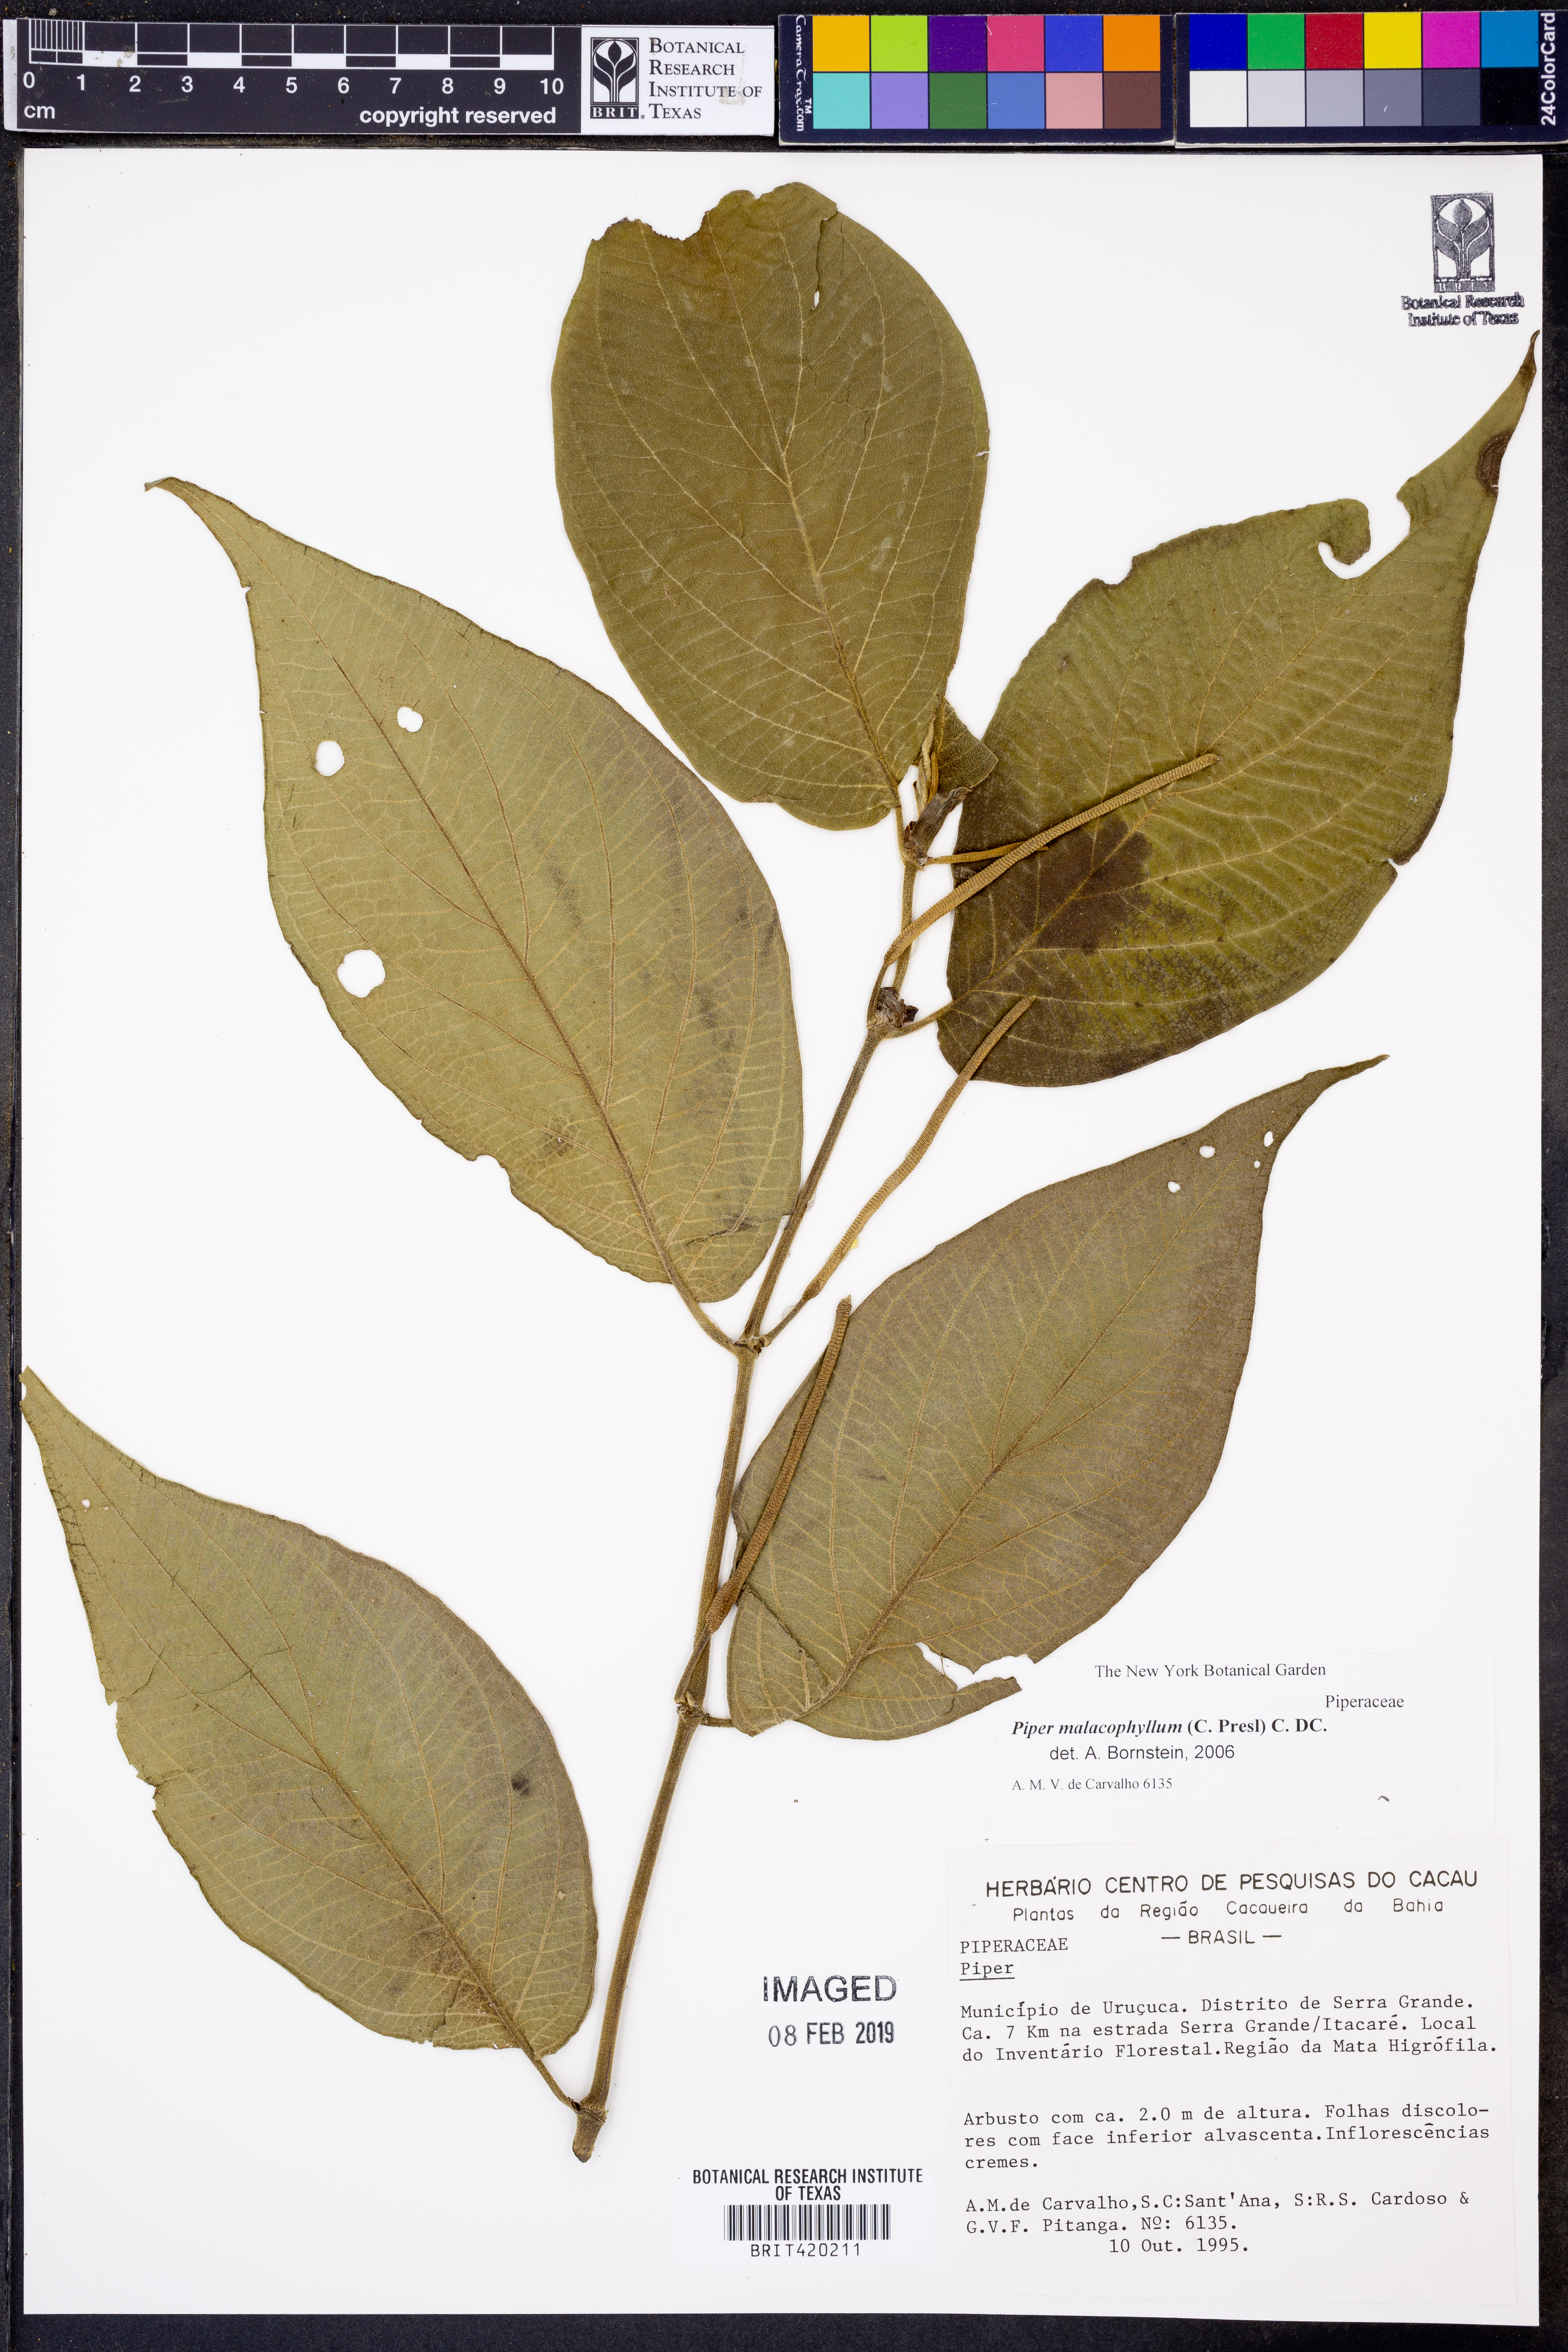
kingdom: Plantae
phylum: Tracheophyta
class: Magnoliopsida
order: Piperales
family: Piperaceae
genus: Piper
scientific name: Piper malacophyllum
